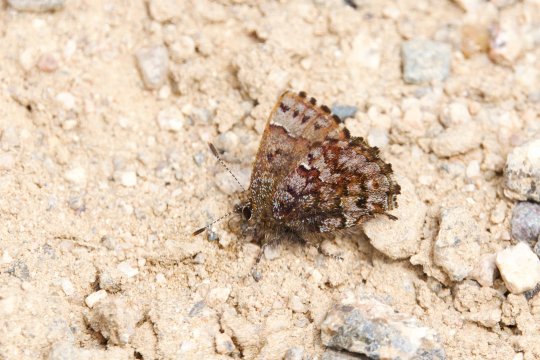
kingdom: Animalia
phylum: Arthropoda
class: Insecta
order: Lepidoptera
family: Lycaenidae
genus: Incisalia
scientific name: Incisalia lanoraieensis
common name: Bog Elfin
